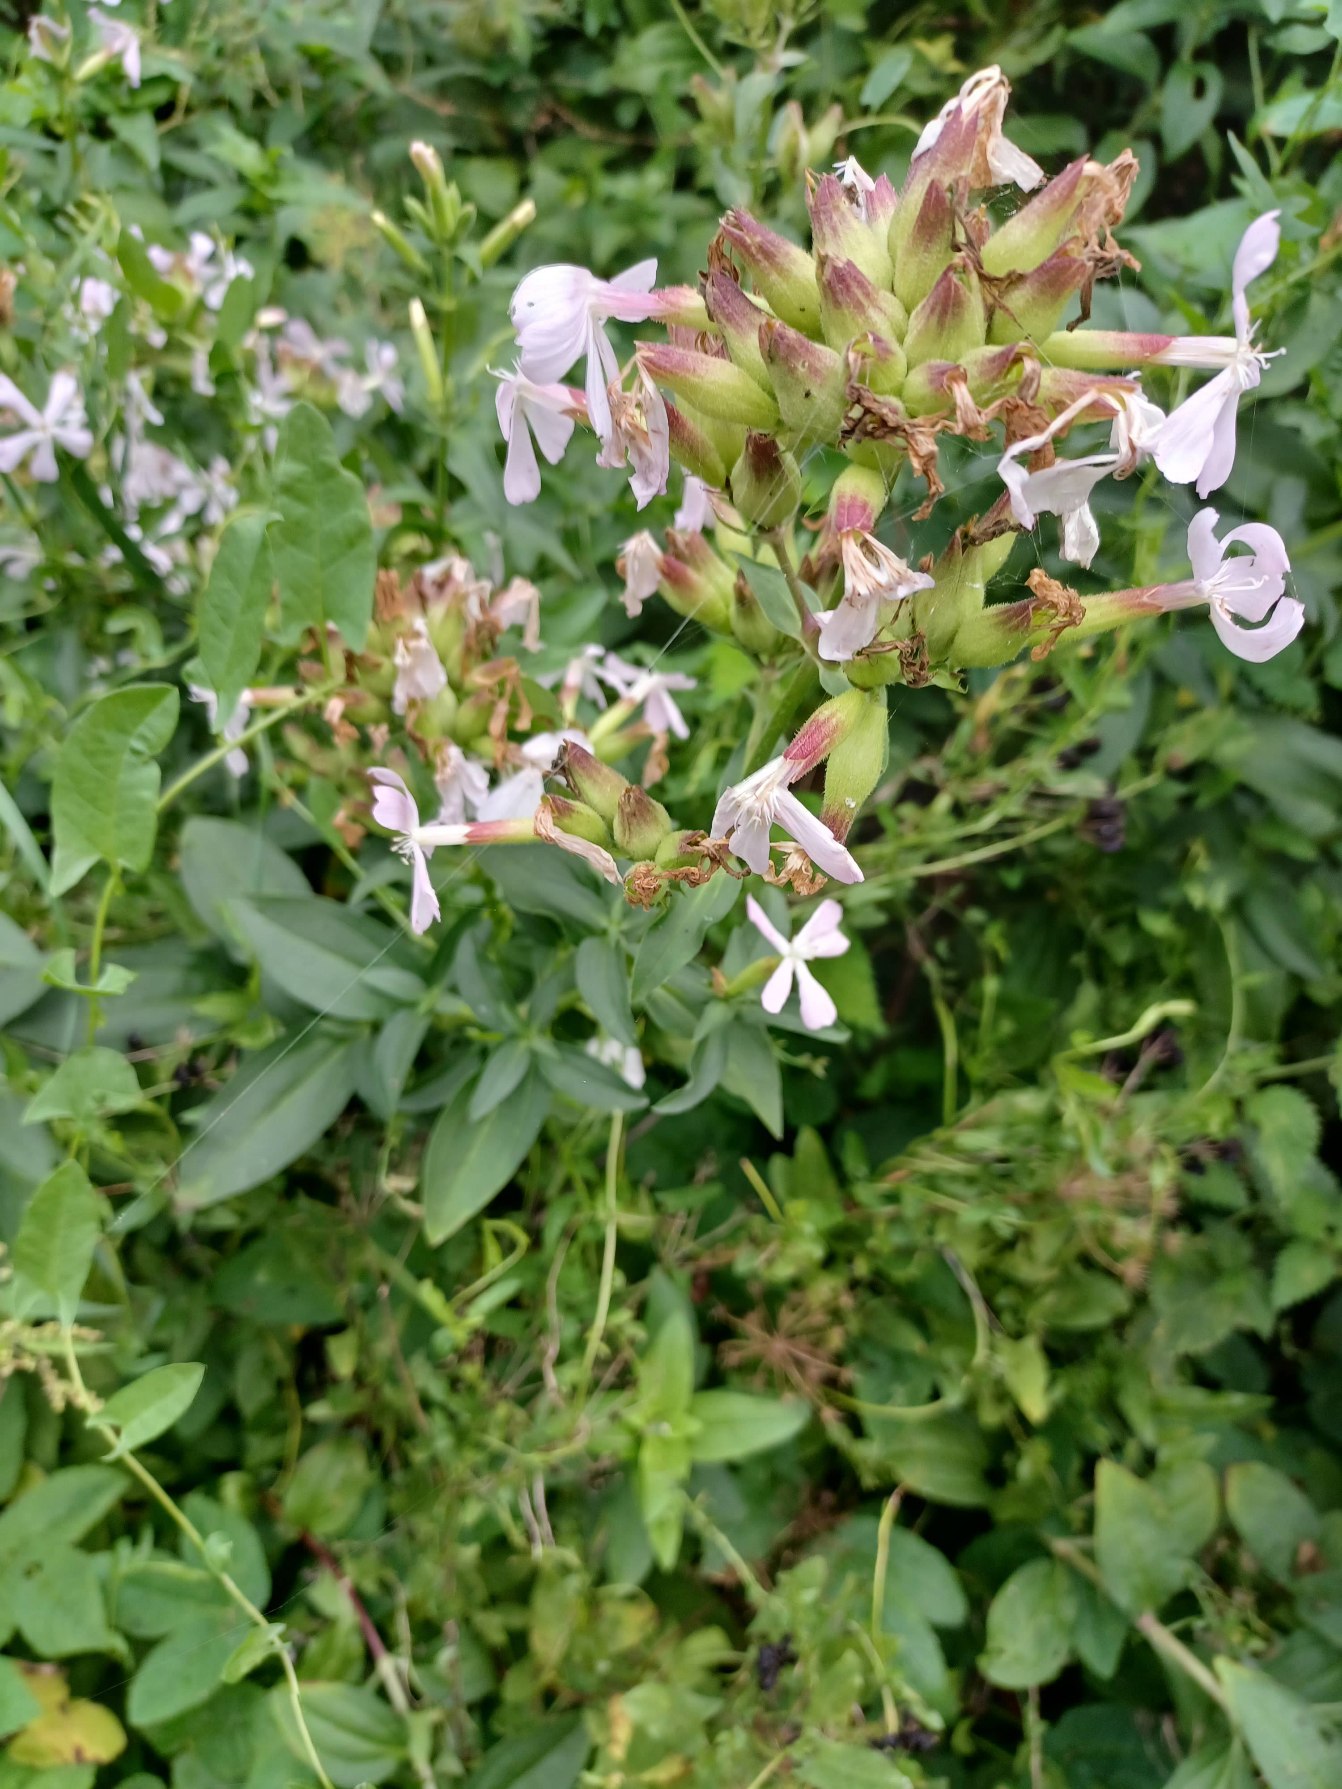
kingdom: Plantae
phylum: Tracheophyta
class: Magnoliopsida
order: Caryophyllales
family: Caryophyllaceae
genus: Saponaria
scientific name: Saponaria officinalis
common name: Sæbeurt
